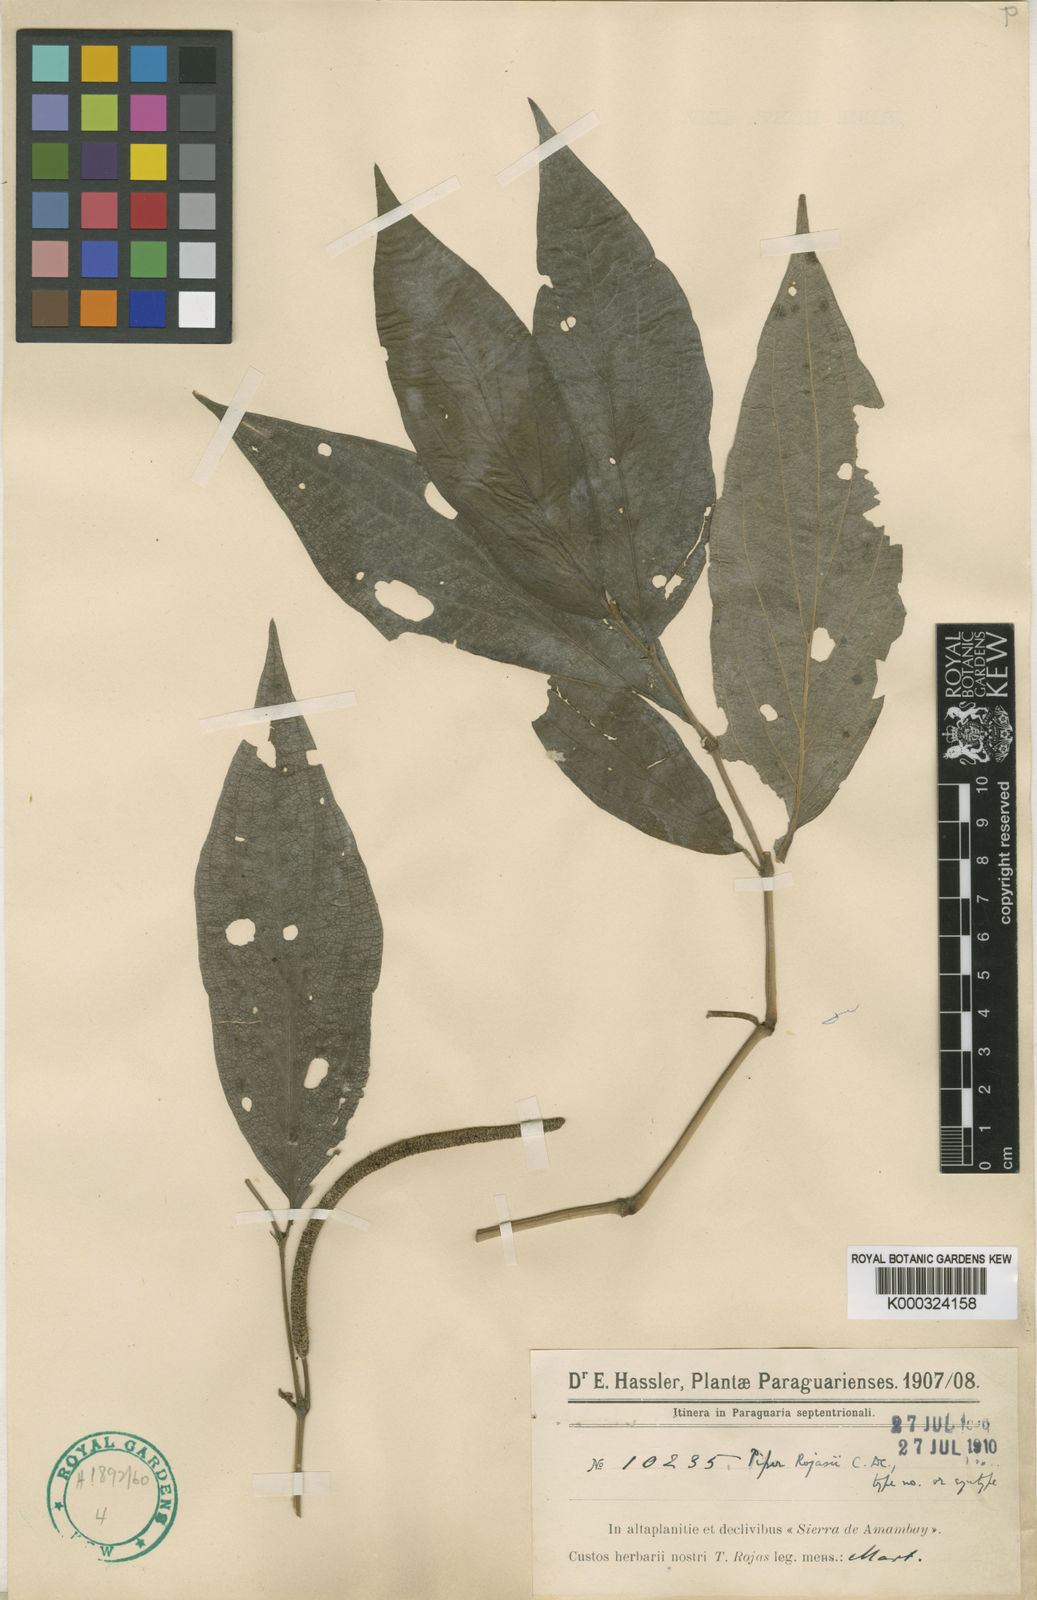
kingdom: Plantae
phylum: Tracheophyta
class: Magnoliopsida
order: Piperales
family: Piperaceae
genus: Piper
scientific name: Piper rojasii
